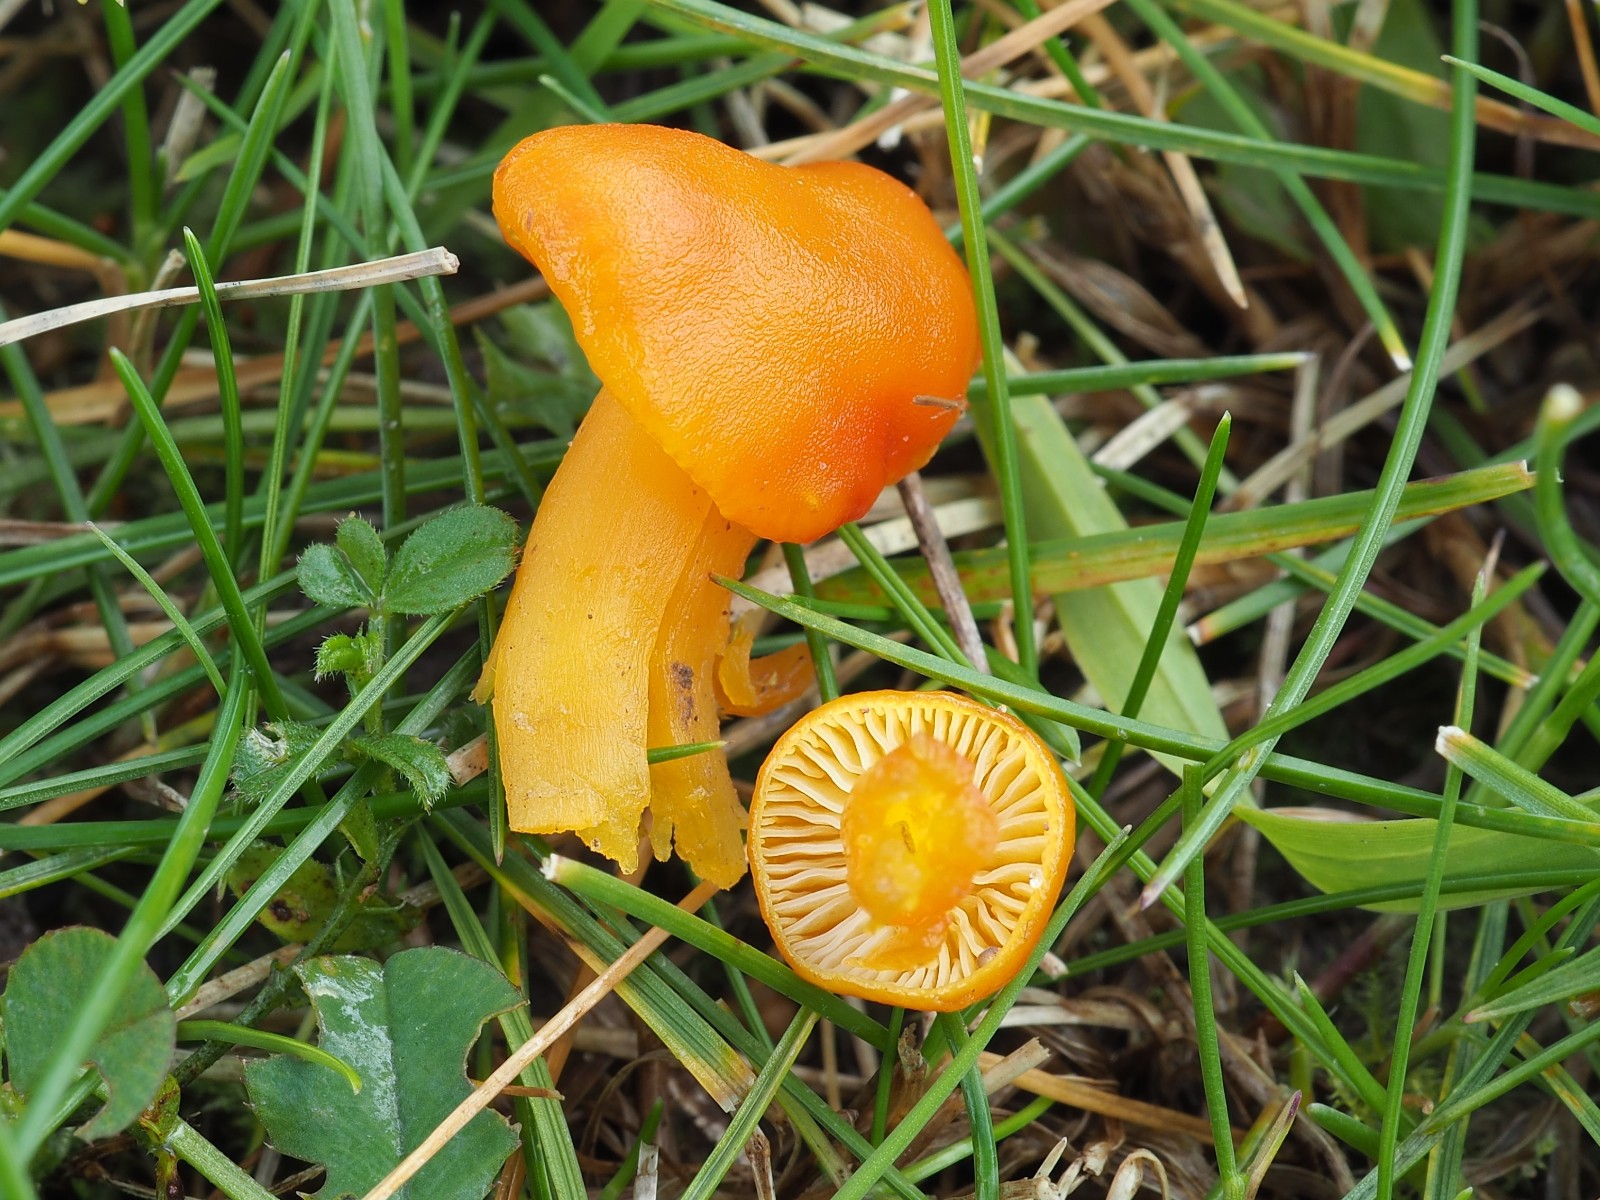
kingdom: Fungi
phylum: Basidiomycota
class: Agaricomycetes
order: Agaricales
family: Hygrophoraceae
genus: Hygrocybe
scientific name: Hygrocybe ceracea
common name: voksgul vokshat
